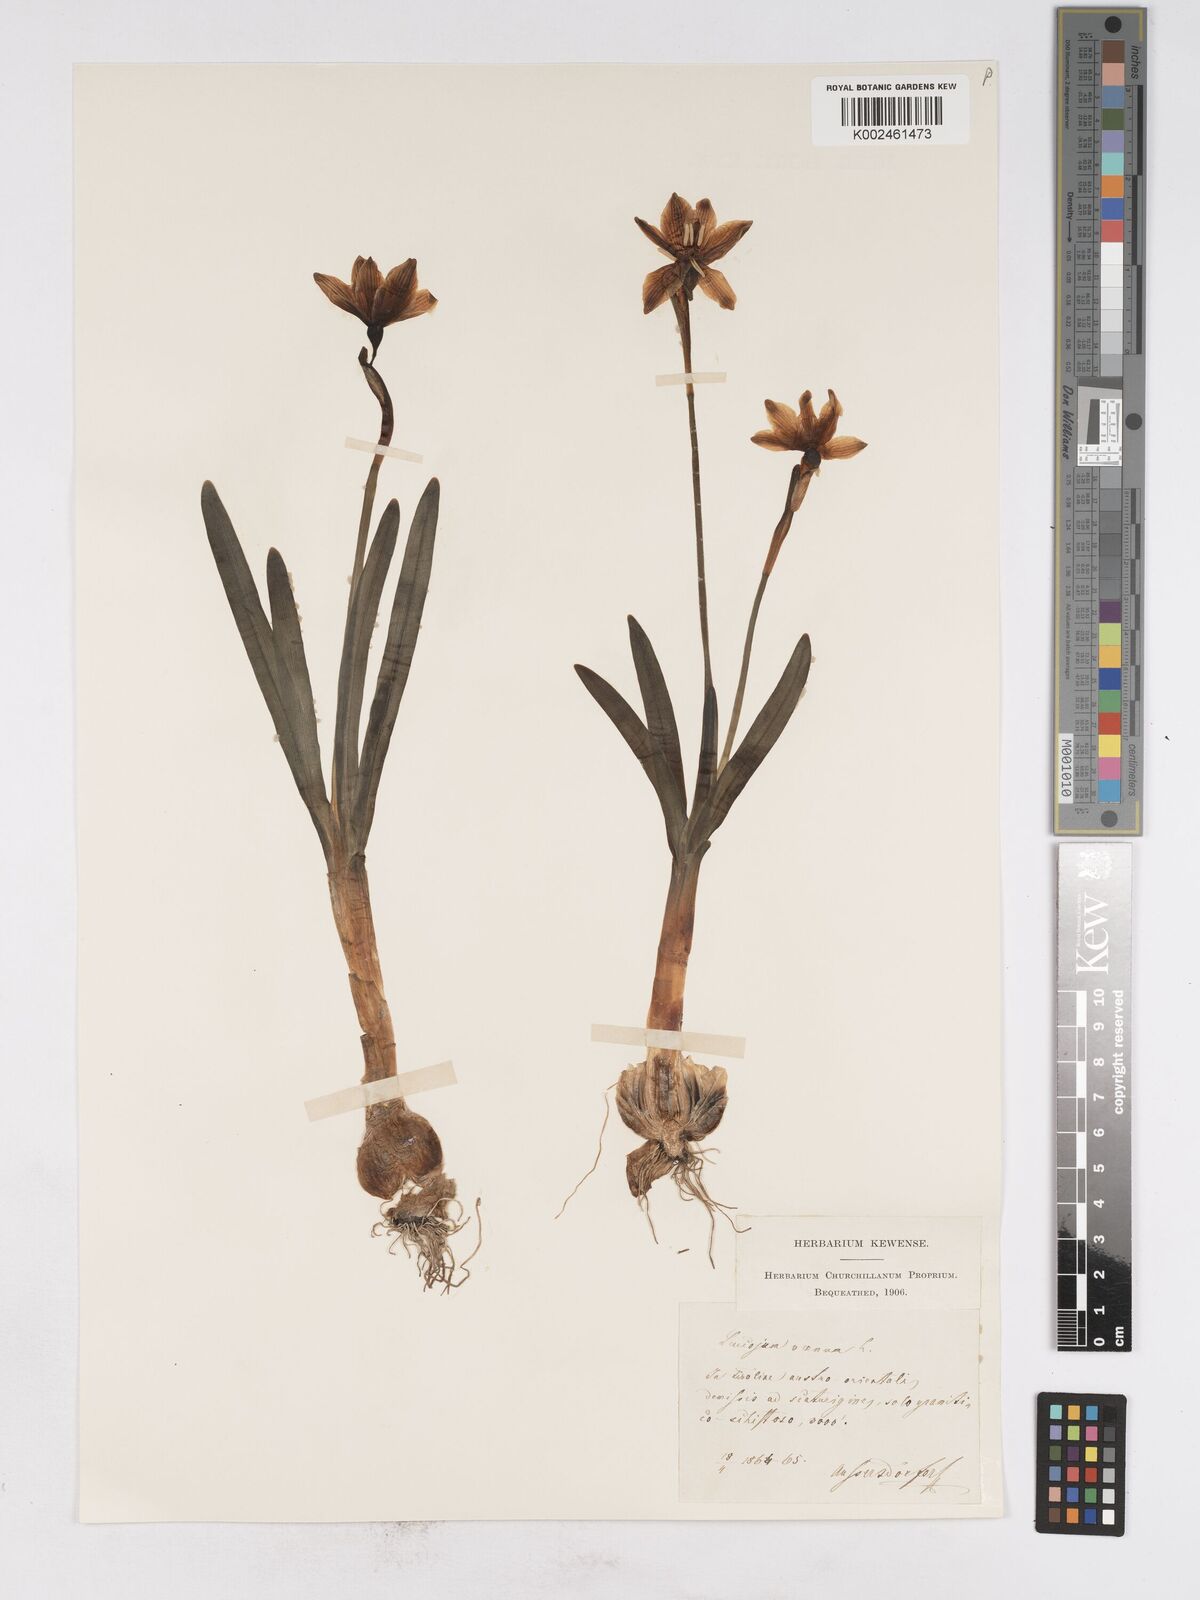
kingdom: Plantae
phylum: Tracheophyta
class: Liliopsida
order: Asparagales
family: Amaryllidaceae
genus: Leucojum
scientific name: Leucojum vernum
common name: Spring snowflake
